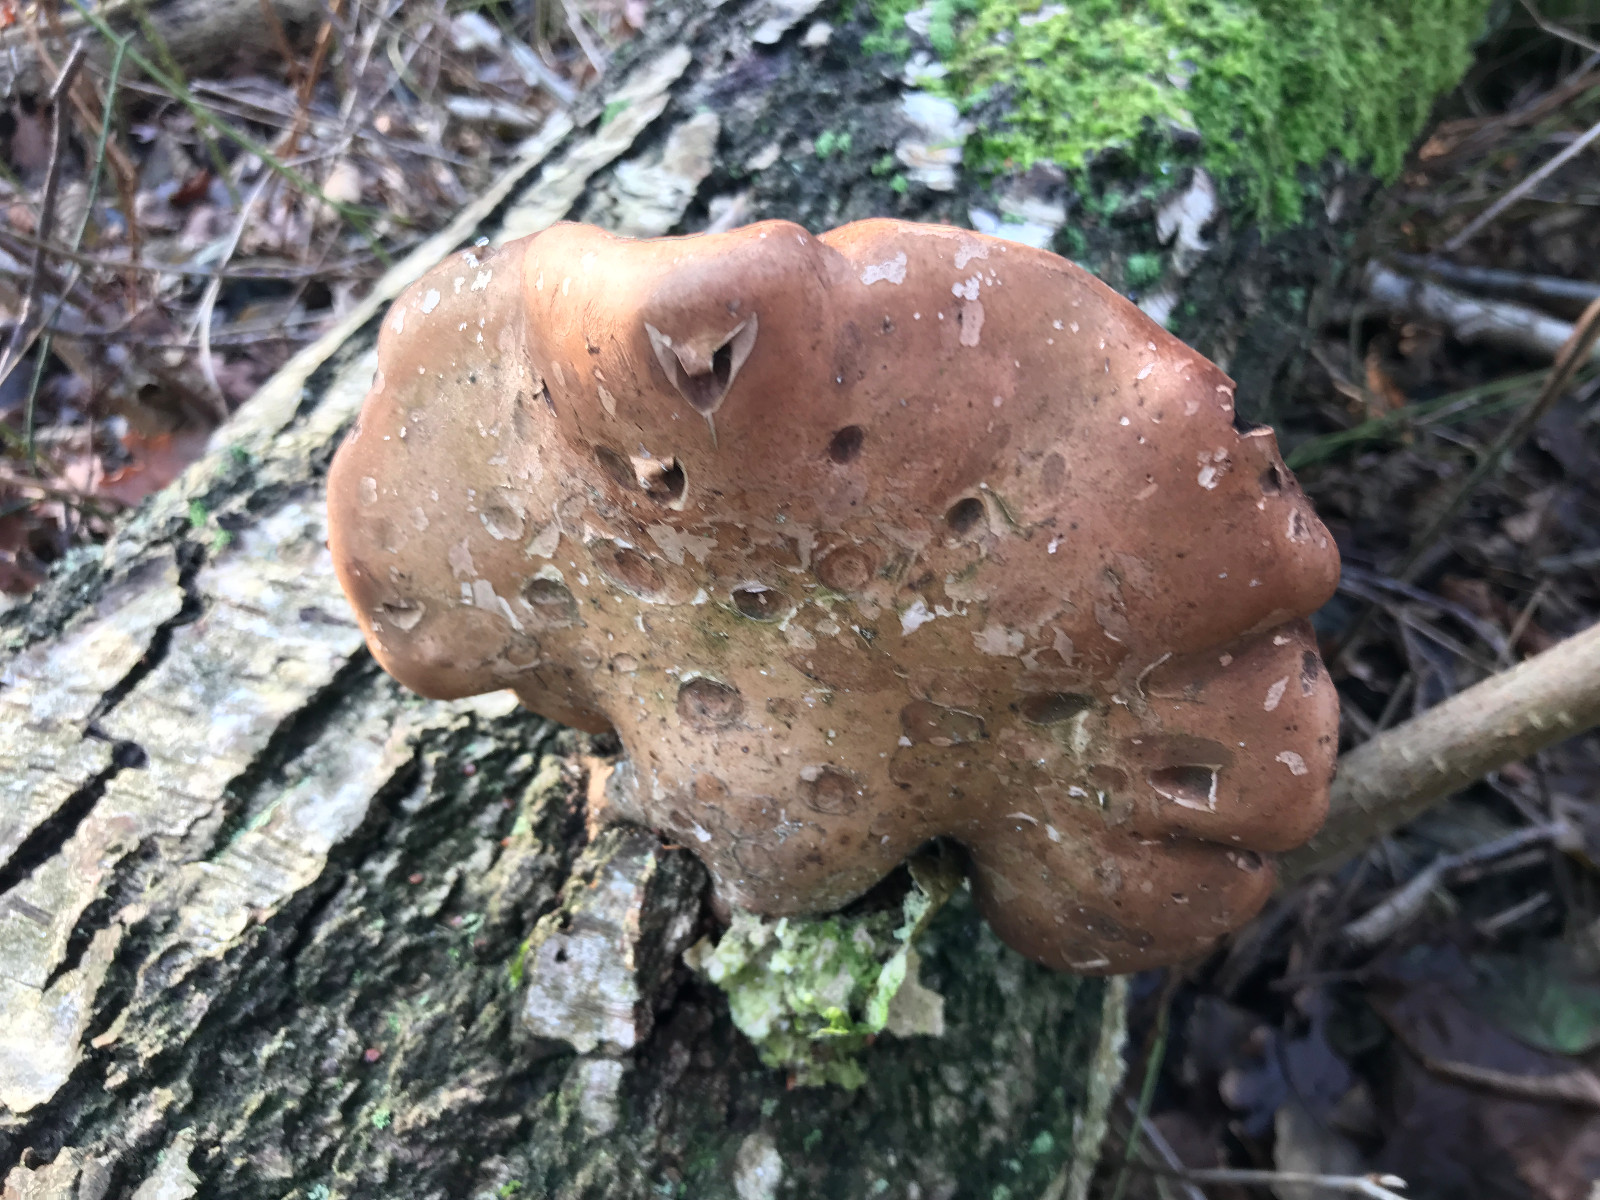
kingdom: Fungi
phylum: Basidiomycota
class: Agaricomycetes
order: Polyporales
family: Fomitopsidaceae
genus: Fomitopsis
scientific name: Fomitopsis betulina
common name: birkeporesvamp
